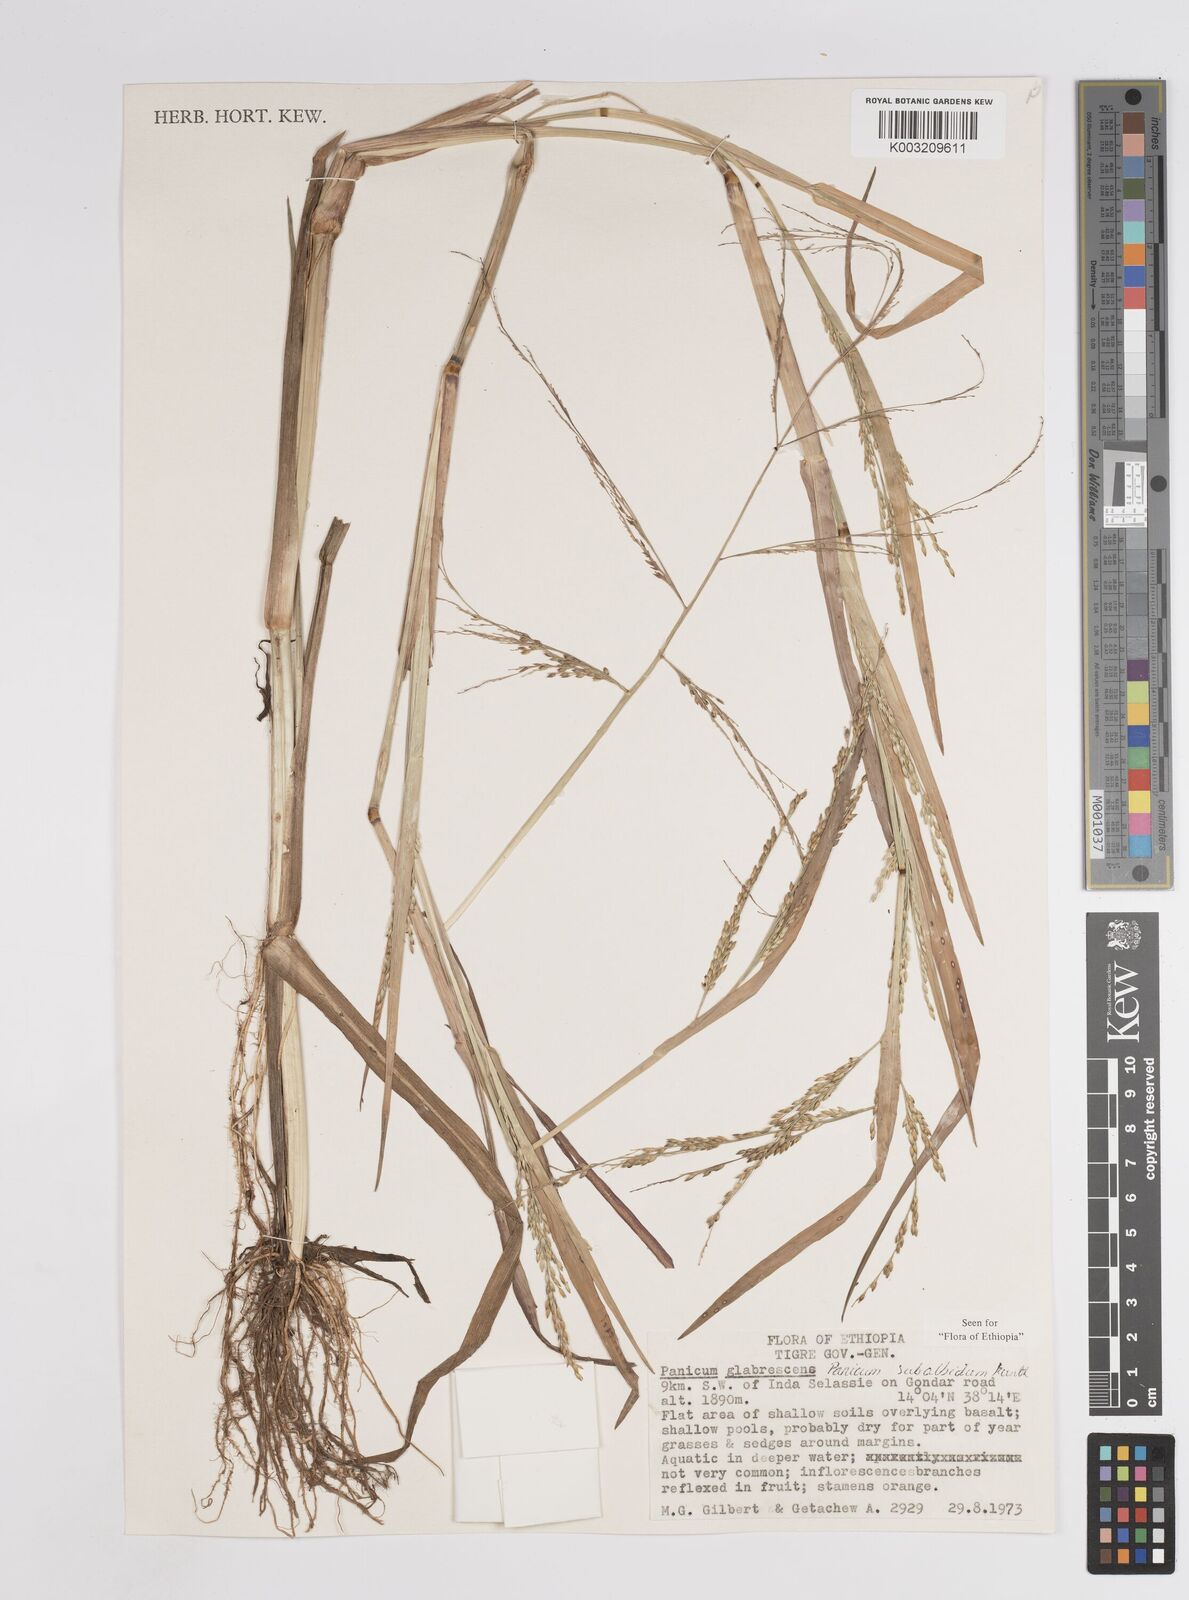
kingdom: Plantae
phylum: Tracheophyta
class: Liliopsida
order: Poales
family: Poaceae
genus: Panicum
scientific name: Panicum subalbidum
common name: Elbow buffalo grass
